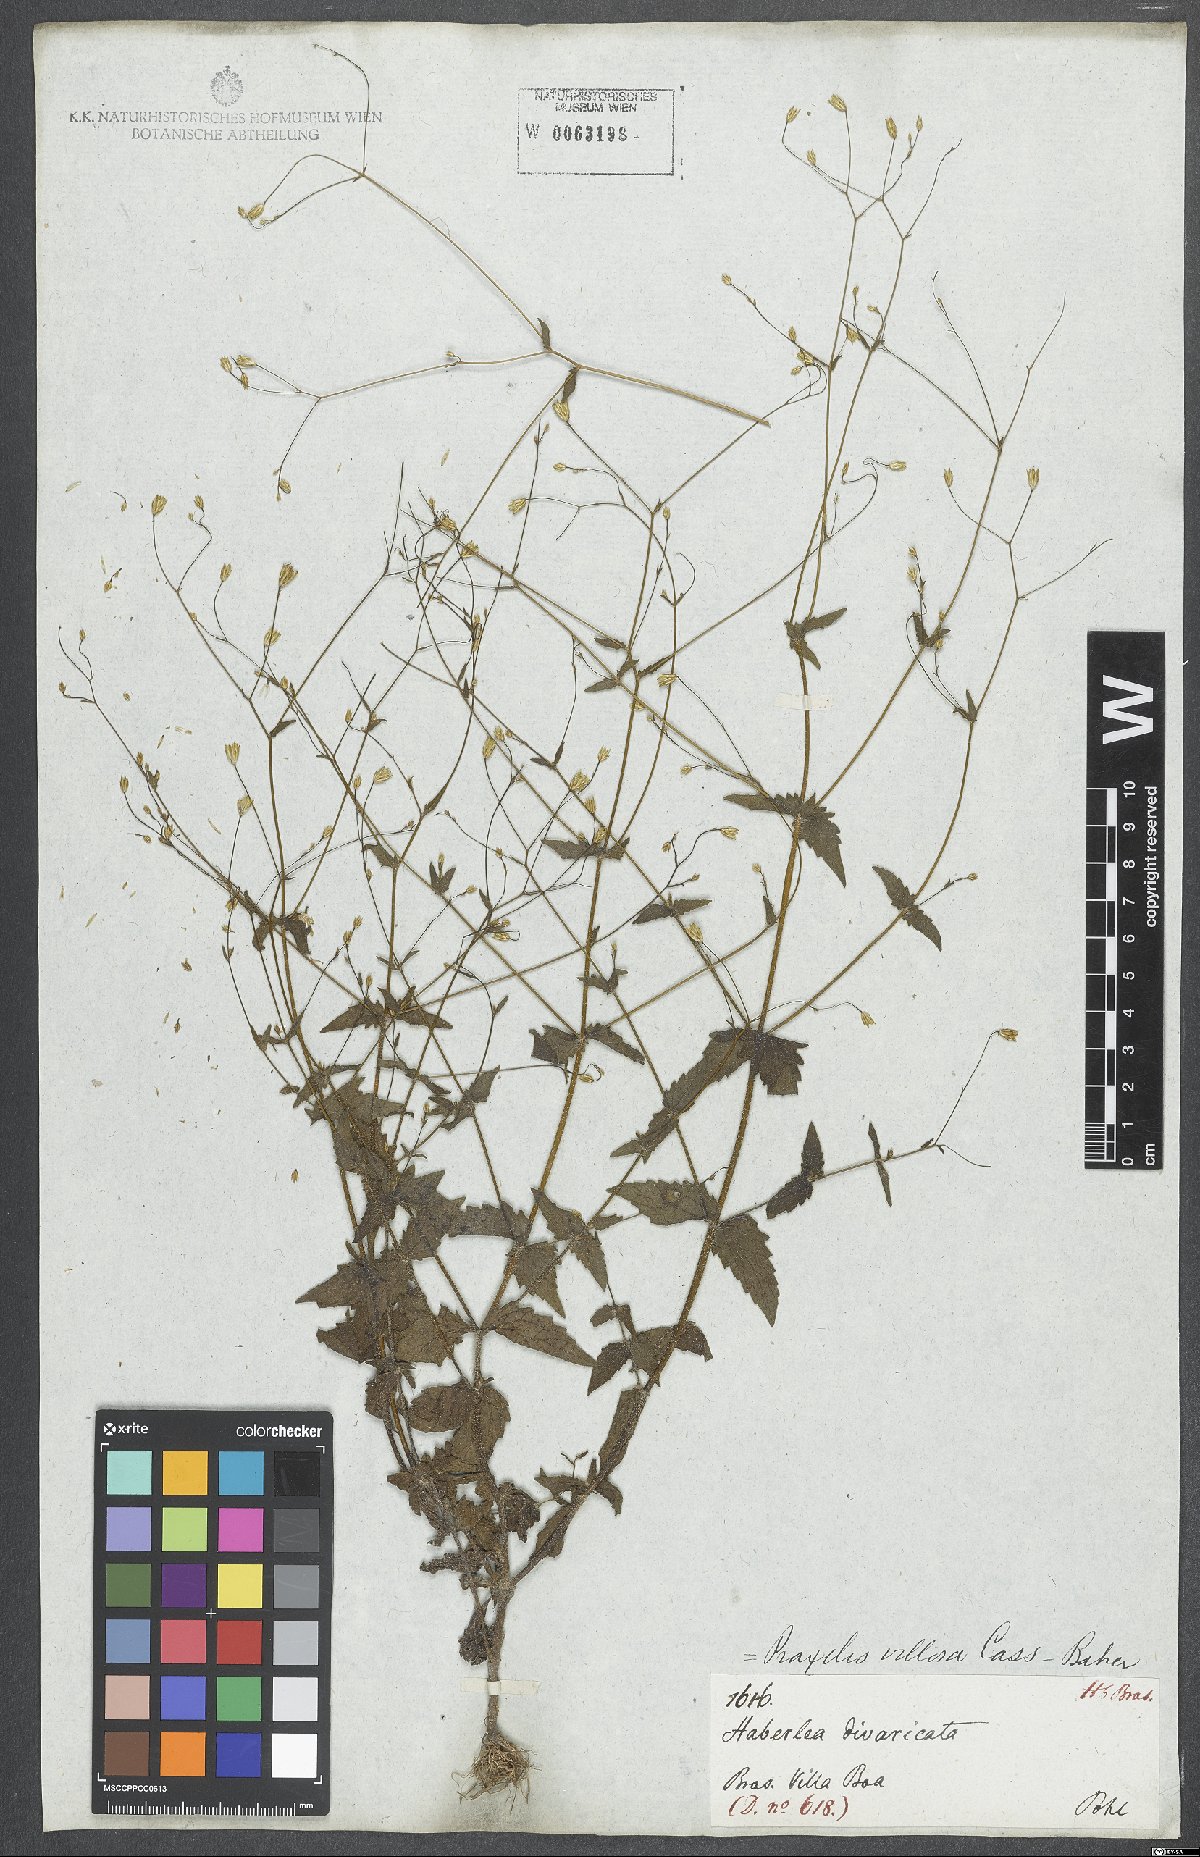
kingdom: Plantae
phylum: Tracheophyta
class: Magnoliopsida
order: Asterales
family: Asteraceae
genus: Ageratina
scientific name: Ageratina altissima
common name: White snakeroot
